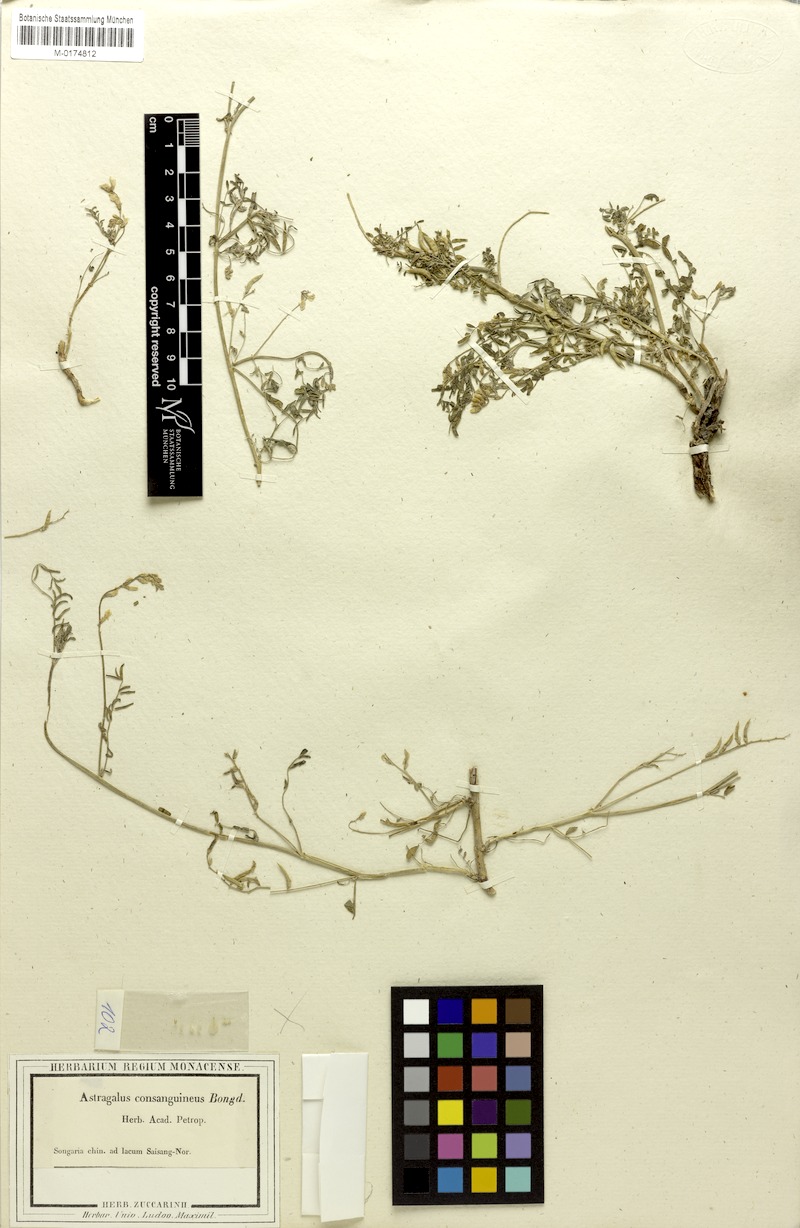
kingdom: Plantae
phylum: Tracheophyta
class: Magnoliopsida
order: Fabales
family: Fabaceae
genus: Astragalus
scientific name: Astragalus consanguineus
